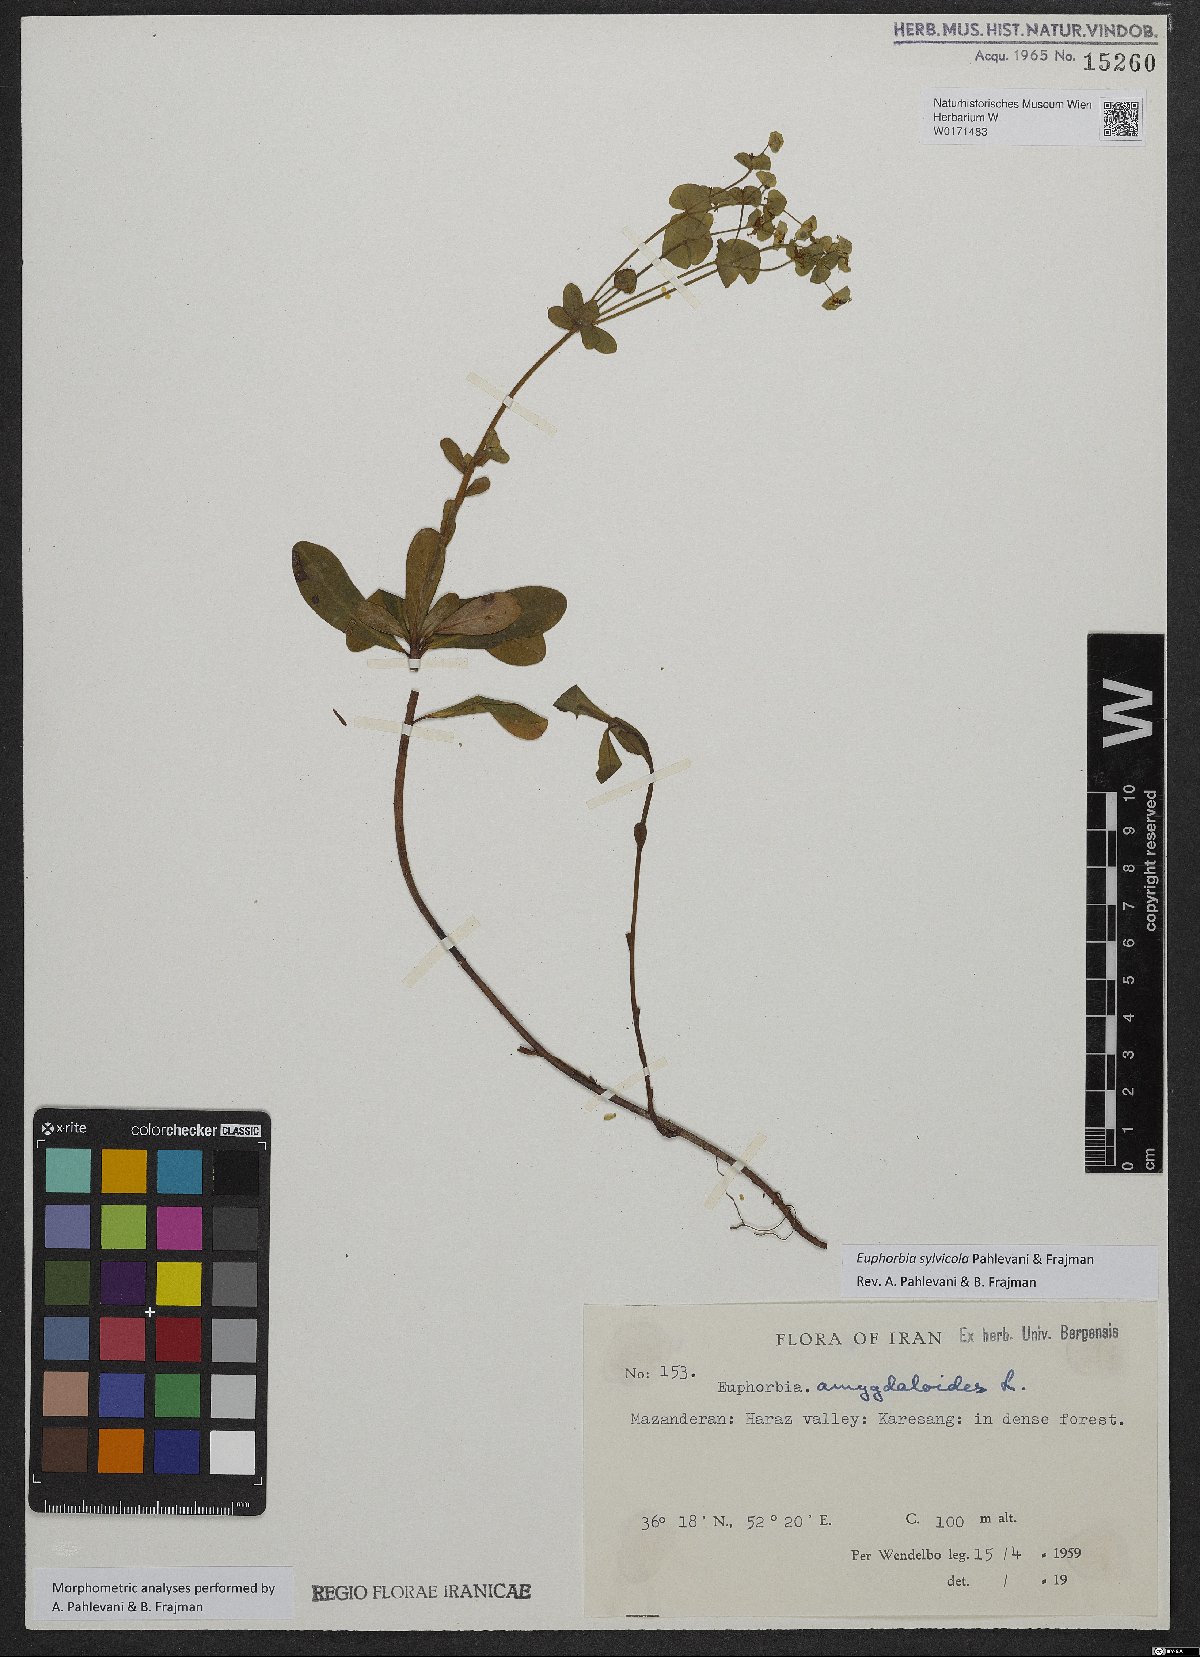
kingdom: Plantae
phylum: Tracheophyta
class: Magnoliopsida
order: Malpighiales
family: Euphorbiaceae
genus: Euphorbia
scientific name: Euphorbia juttae
